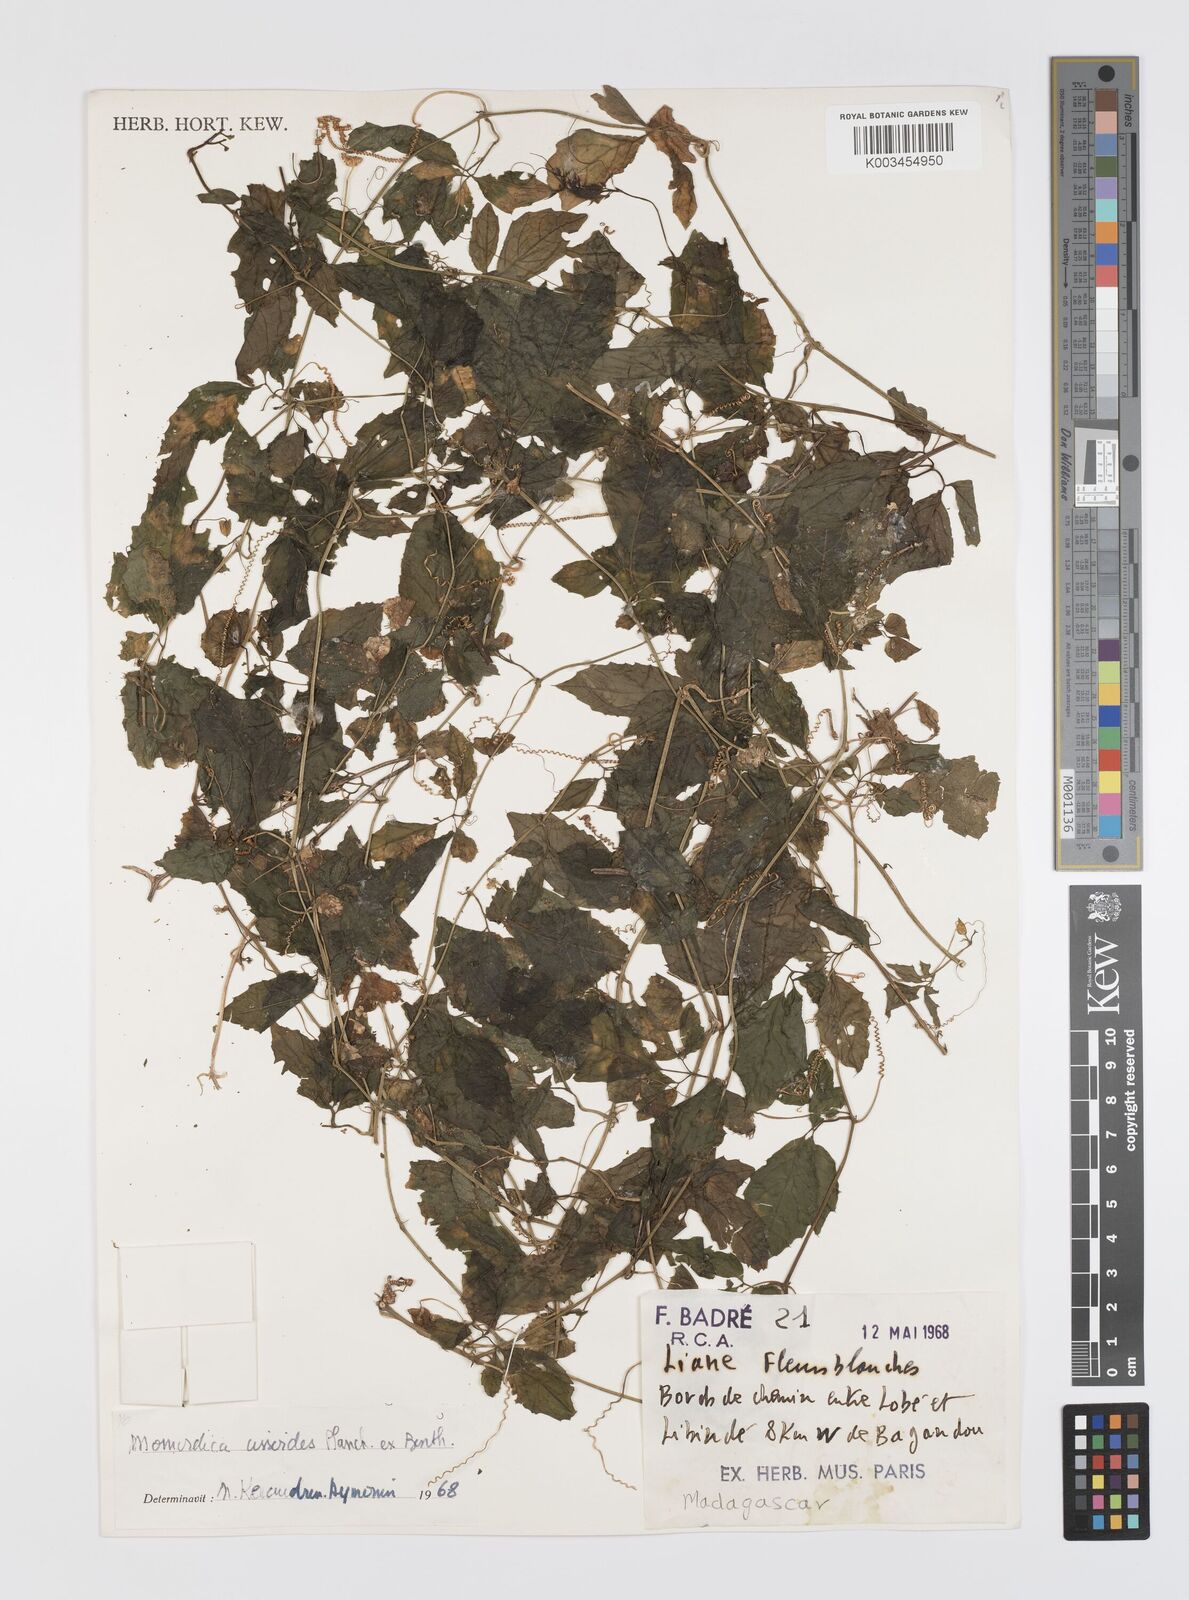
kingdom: Plantae
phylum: Tracheophyta
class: Magnoliopsida
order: Cucurbitales
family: Cucurbitaceae
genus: Momordica
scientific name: Momordica cissoides
